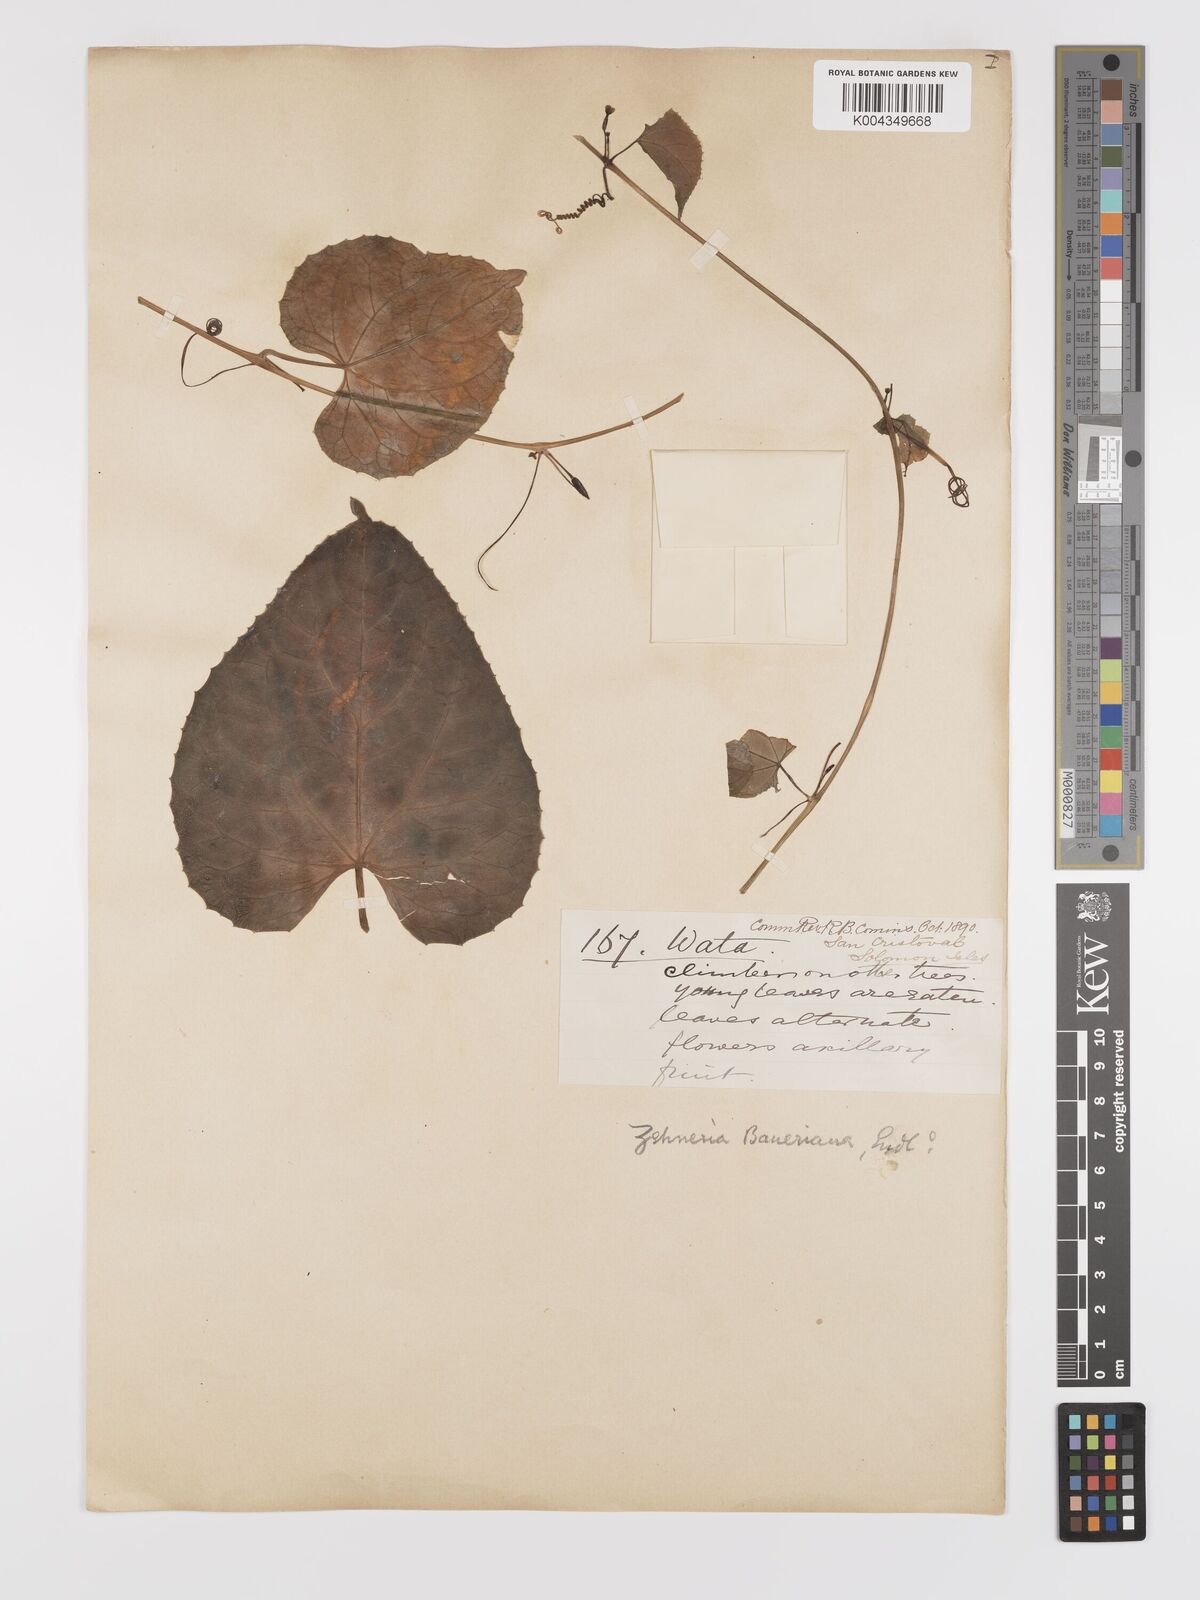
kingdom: Plantae
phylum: Tracheophyta
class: Magnoliopsida
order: Cucurbitales
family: Cucurbitaceae
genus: Zehneria
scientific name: Zehneria mucronata
